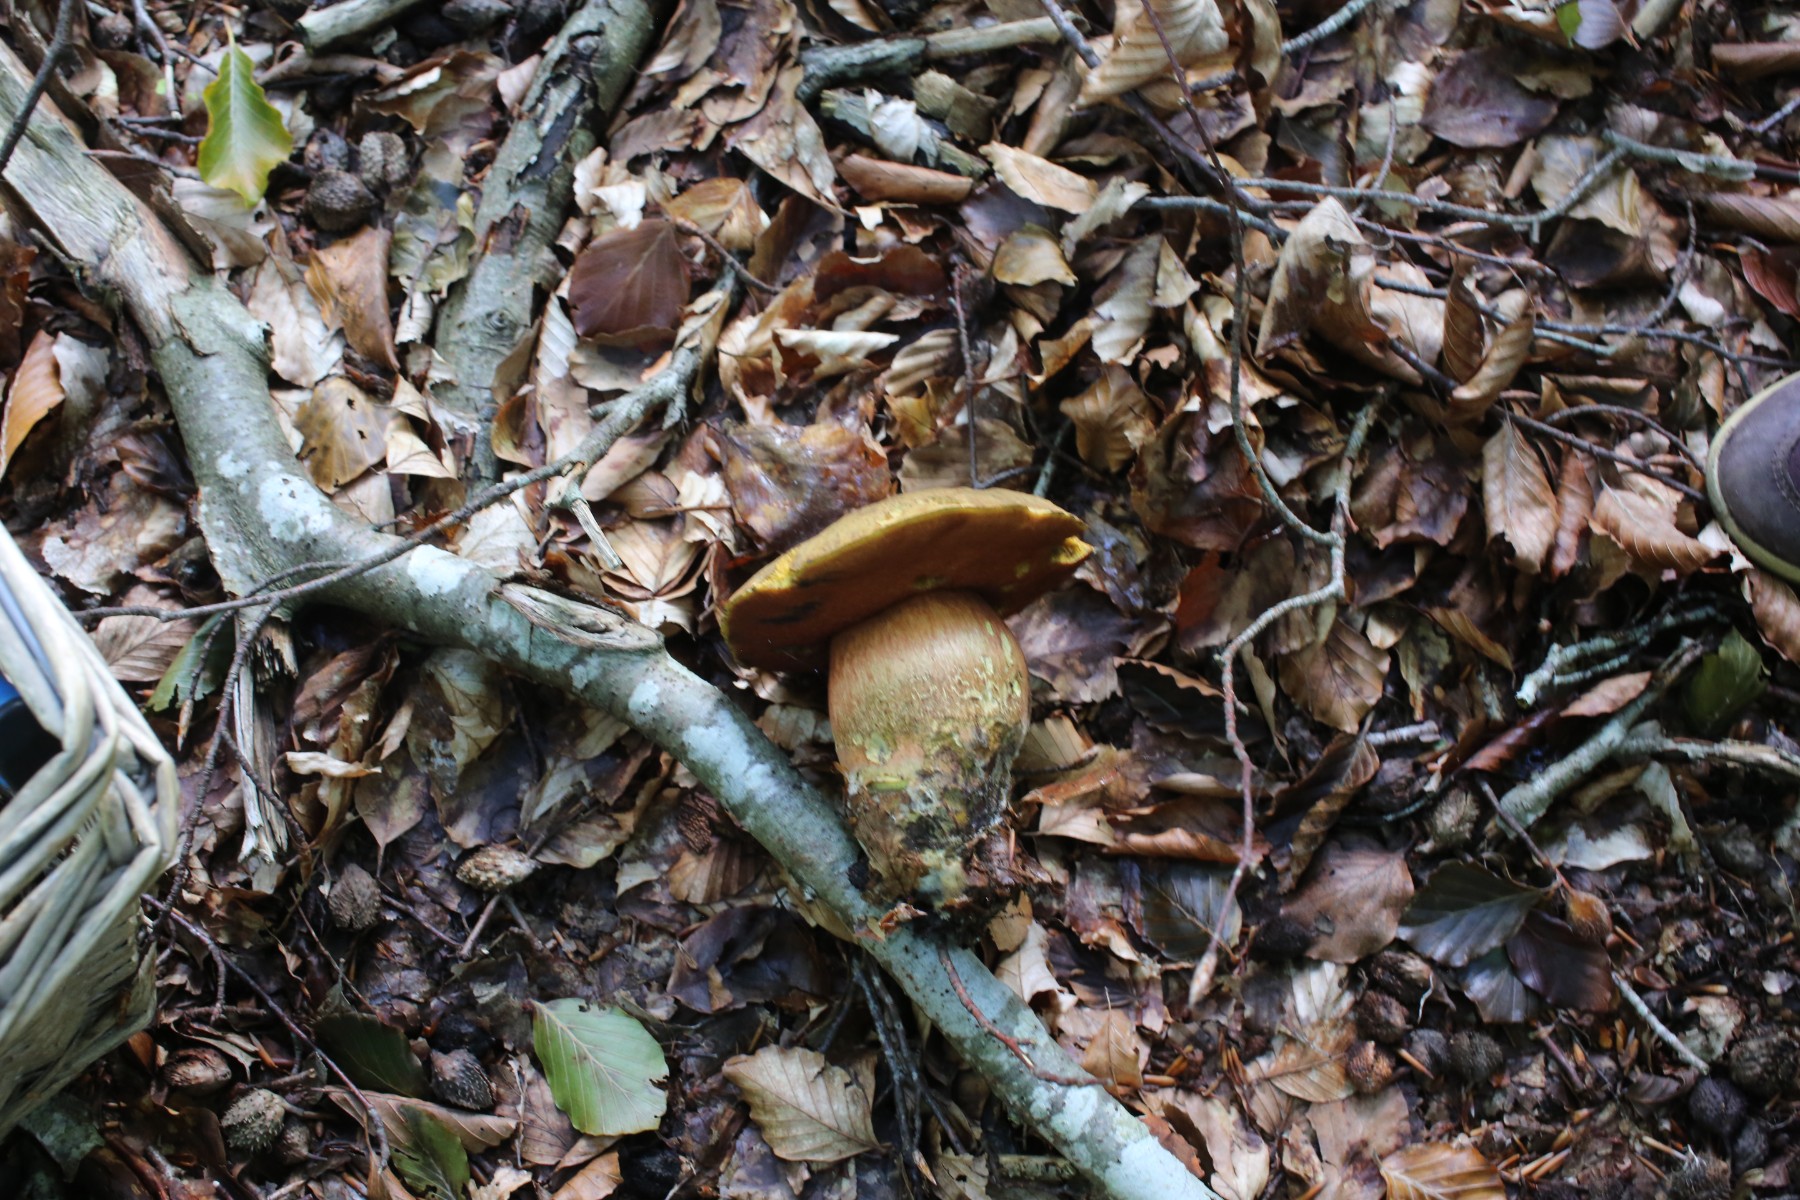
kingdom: Fungi
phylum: Basidiomycota
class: Agaricomycetes
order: Boletales
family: Boletaceae
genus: Neoboletus
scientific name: Neoboletus erythropus
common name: punktstokket indigorørhat
